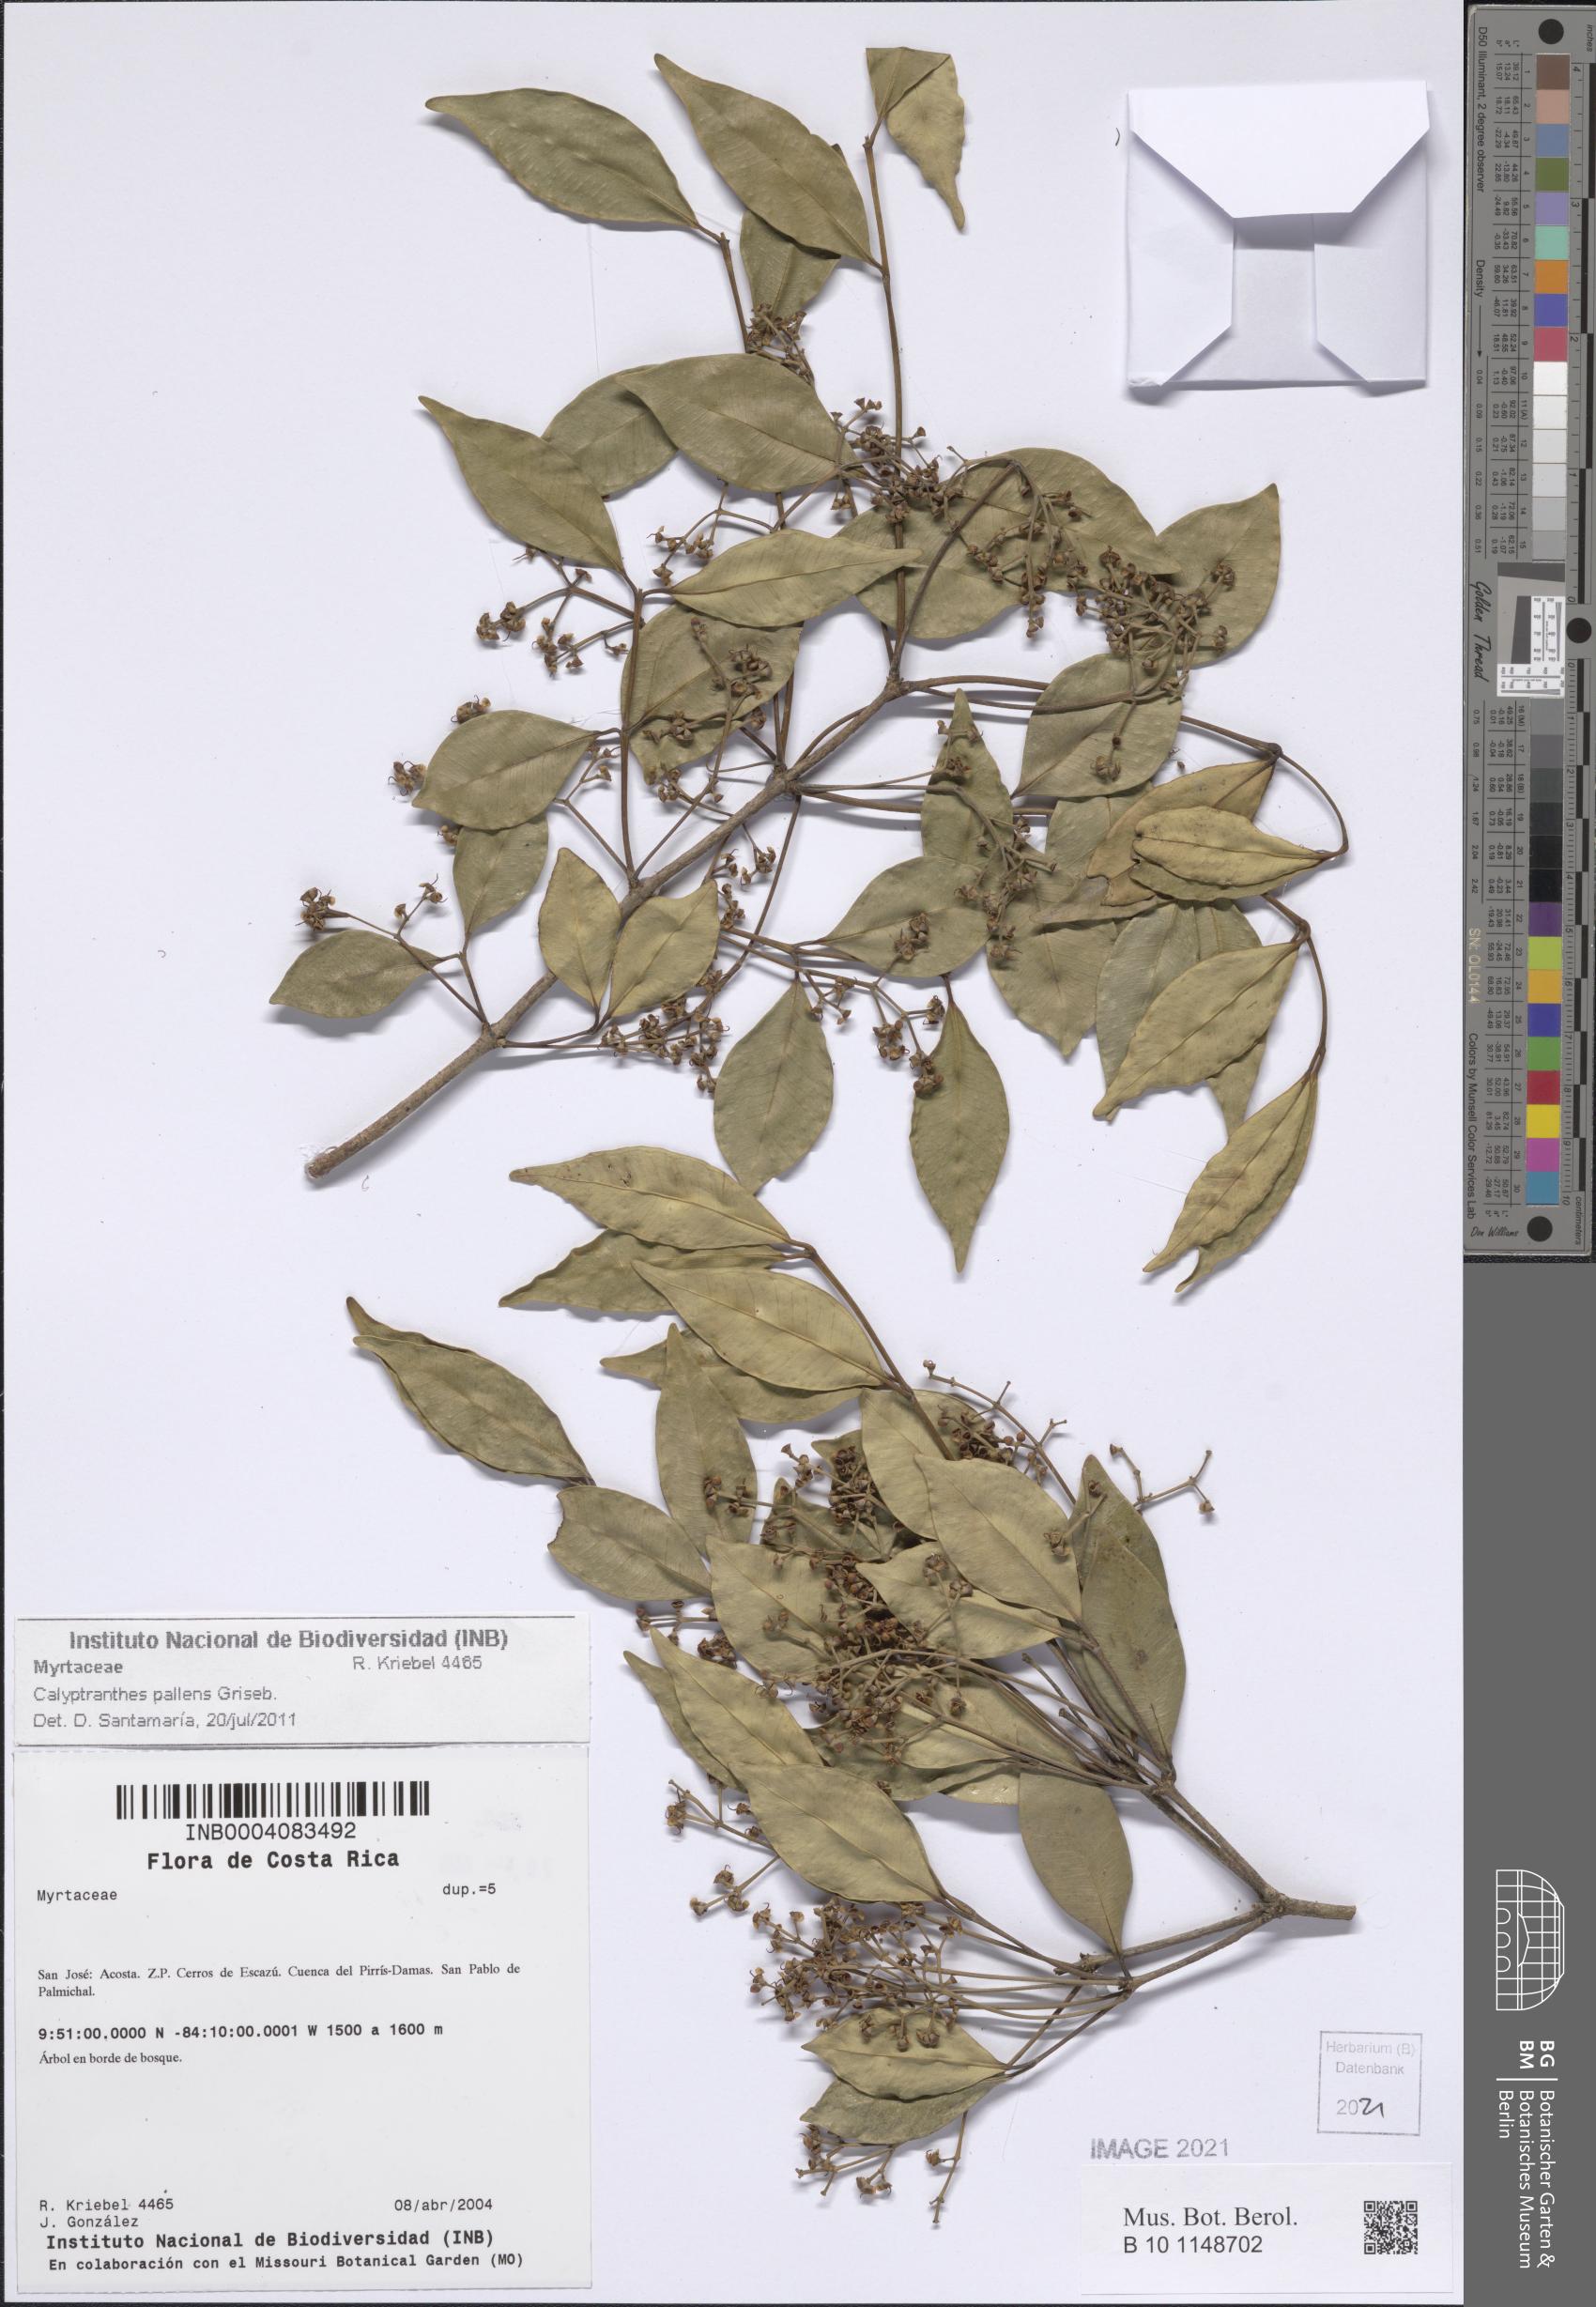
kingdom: Plantae
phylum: Tracheophyta
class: Magnoliopsida
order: Myrtales
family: Myrtaceae
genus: Myrcia
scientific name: Myrcia neopallens
